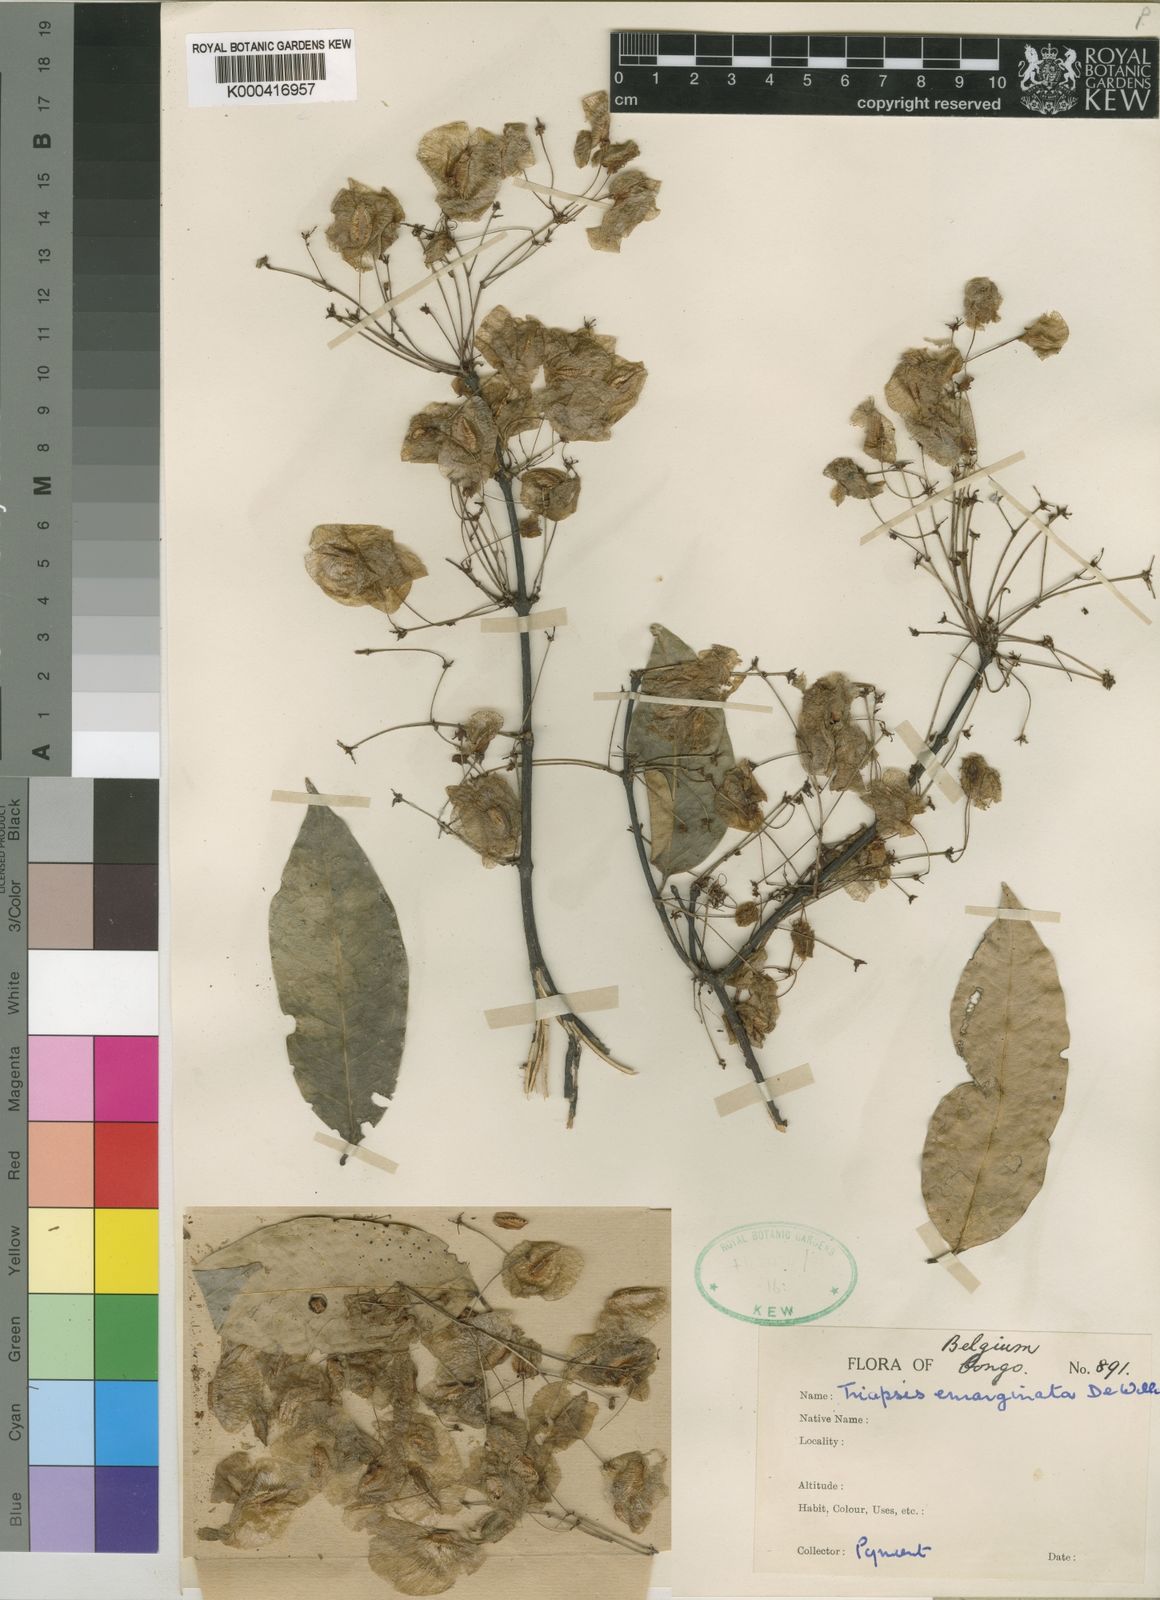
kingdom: Plantae
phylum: Tracheophyta
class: Magnoliopsida
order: Malpighiales
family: Malpighiaceae
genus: Triaspis
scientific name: Triaspis emarginata
